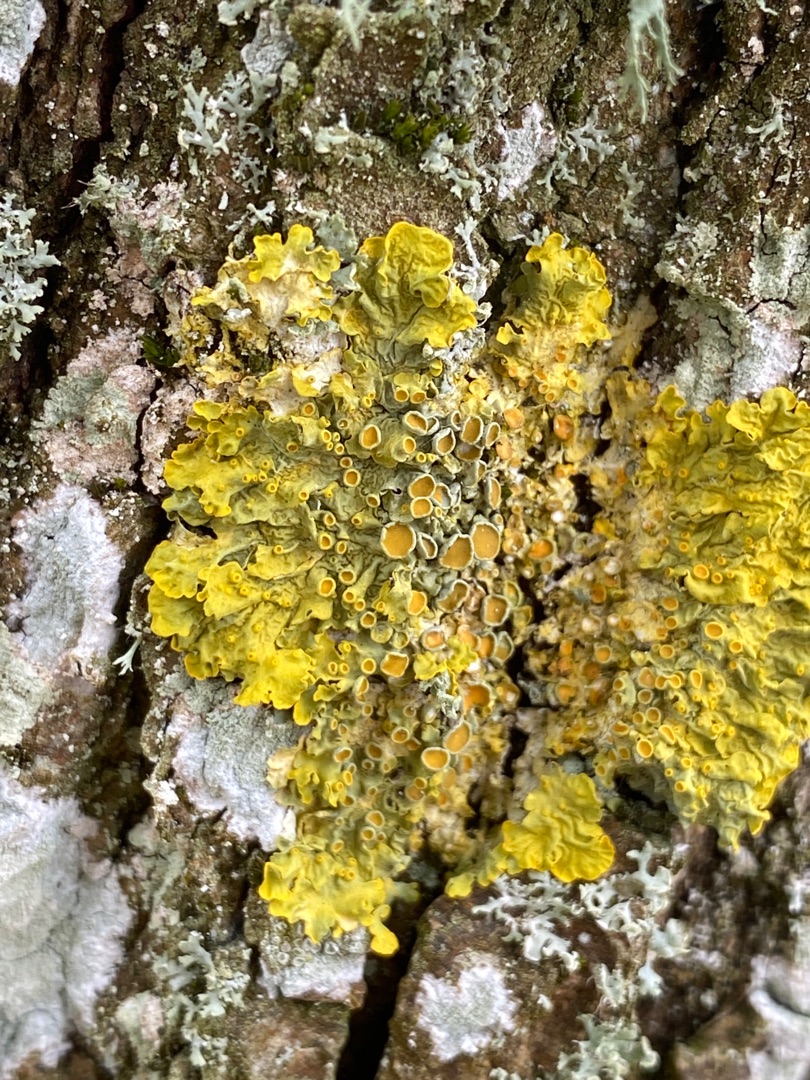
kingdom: Fungi
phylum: Ascomycota
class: Lecanoromycetes
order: Teloschistales
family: Teloschistaceae
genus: Xanthoria
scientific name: Xanthoria parietina
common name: Almindelig væggelav
